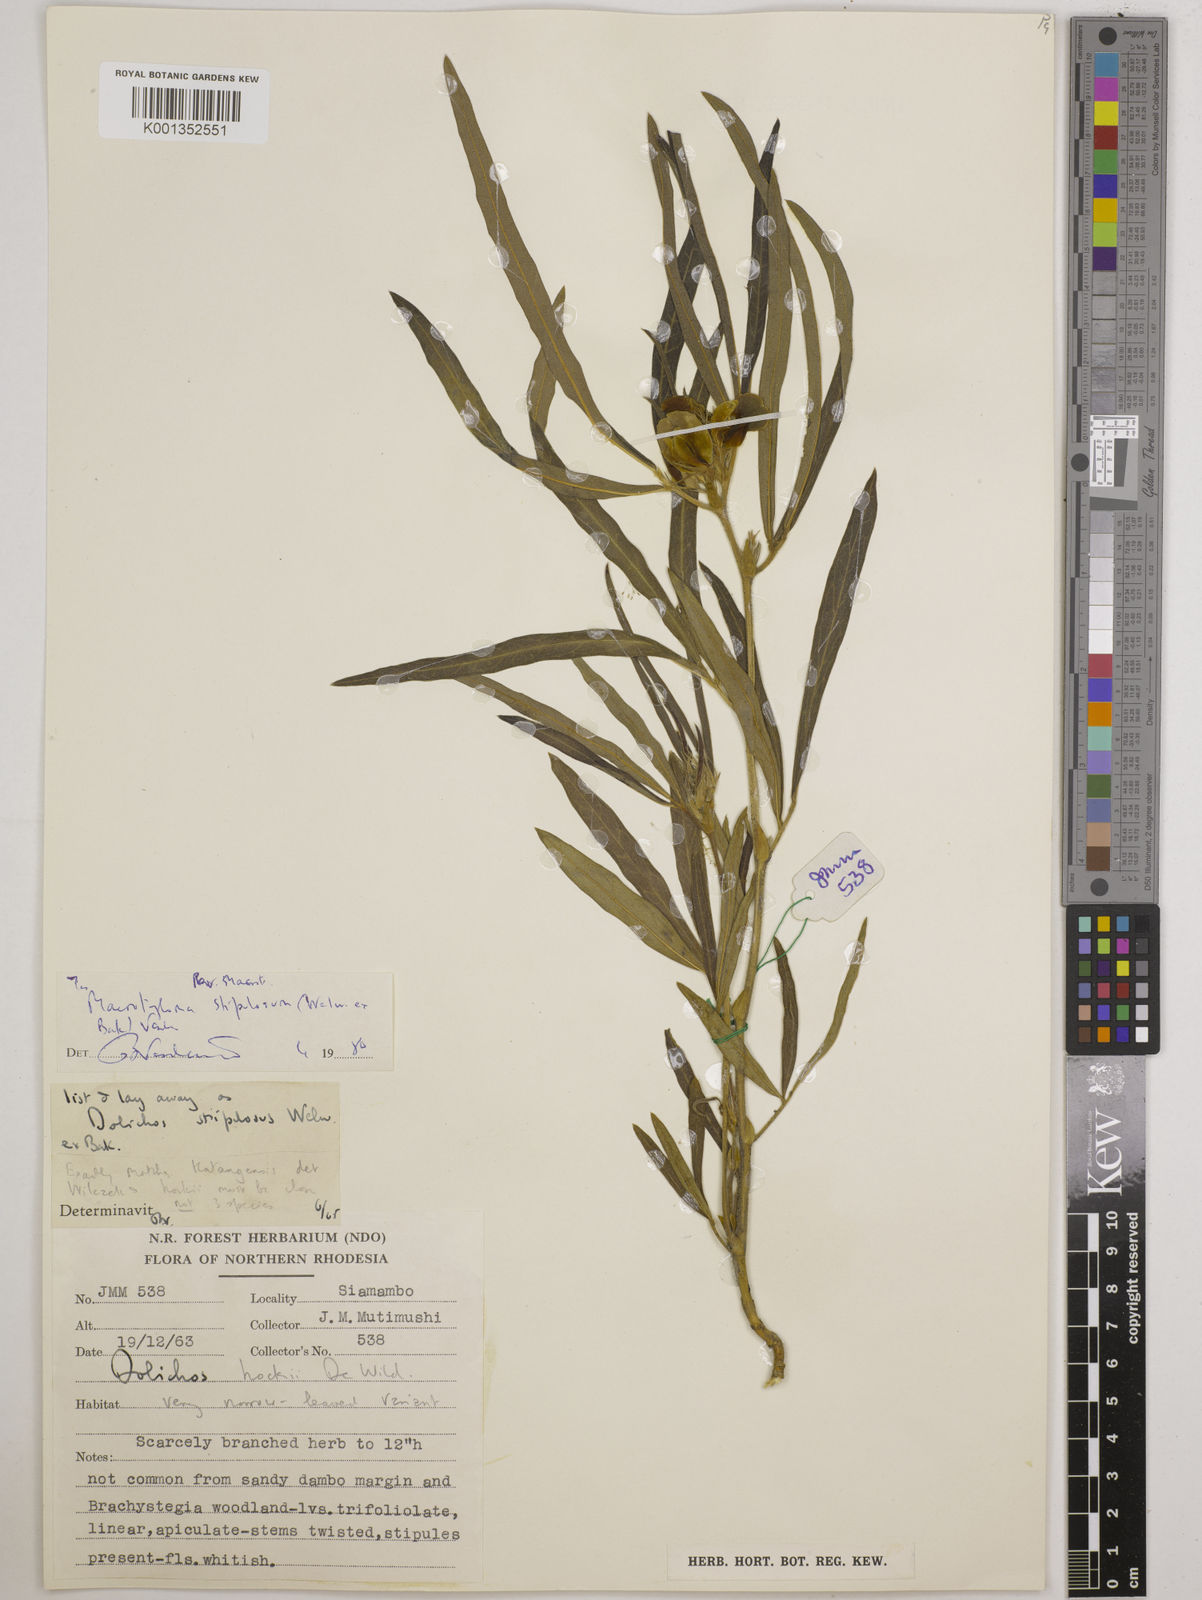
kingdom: Plantae
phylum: Tracheophyta
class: Magnoliopsida
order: Fabales
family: Fabaceae
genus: Macrotyloma
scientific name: Macrotyloma stipulosum
